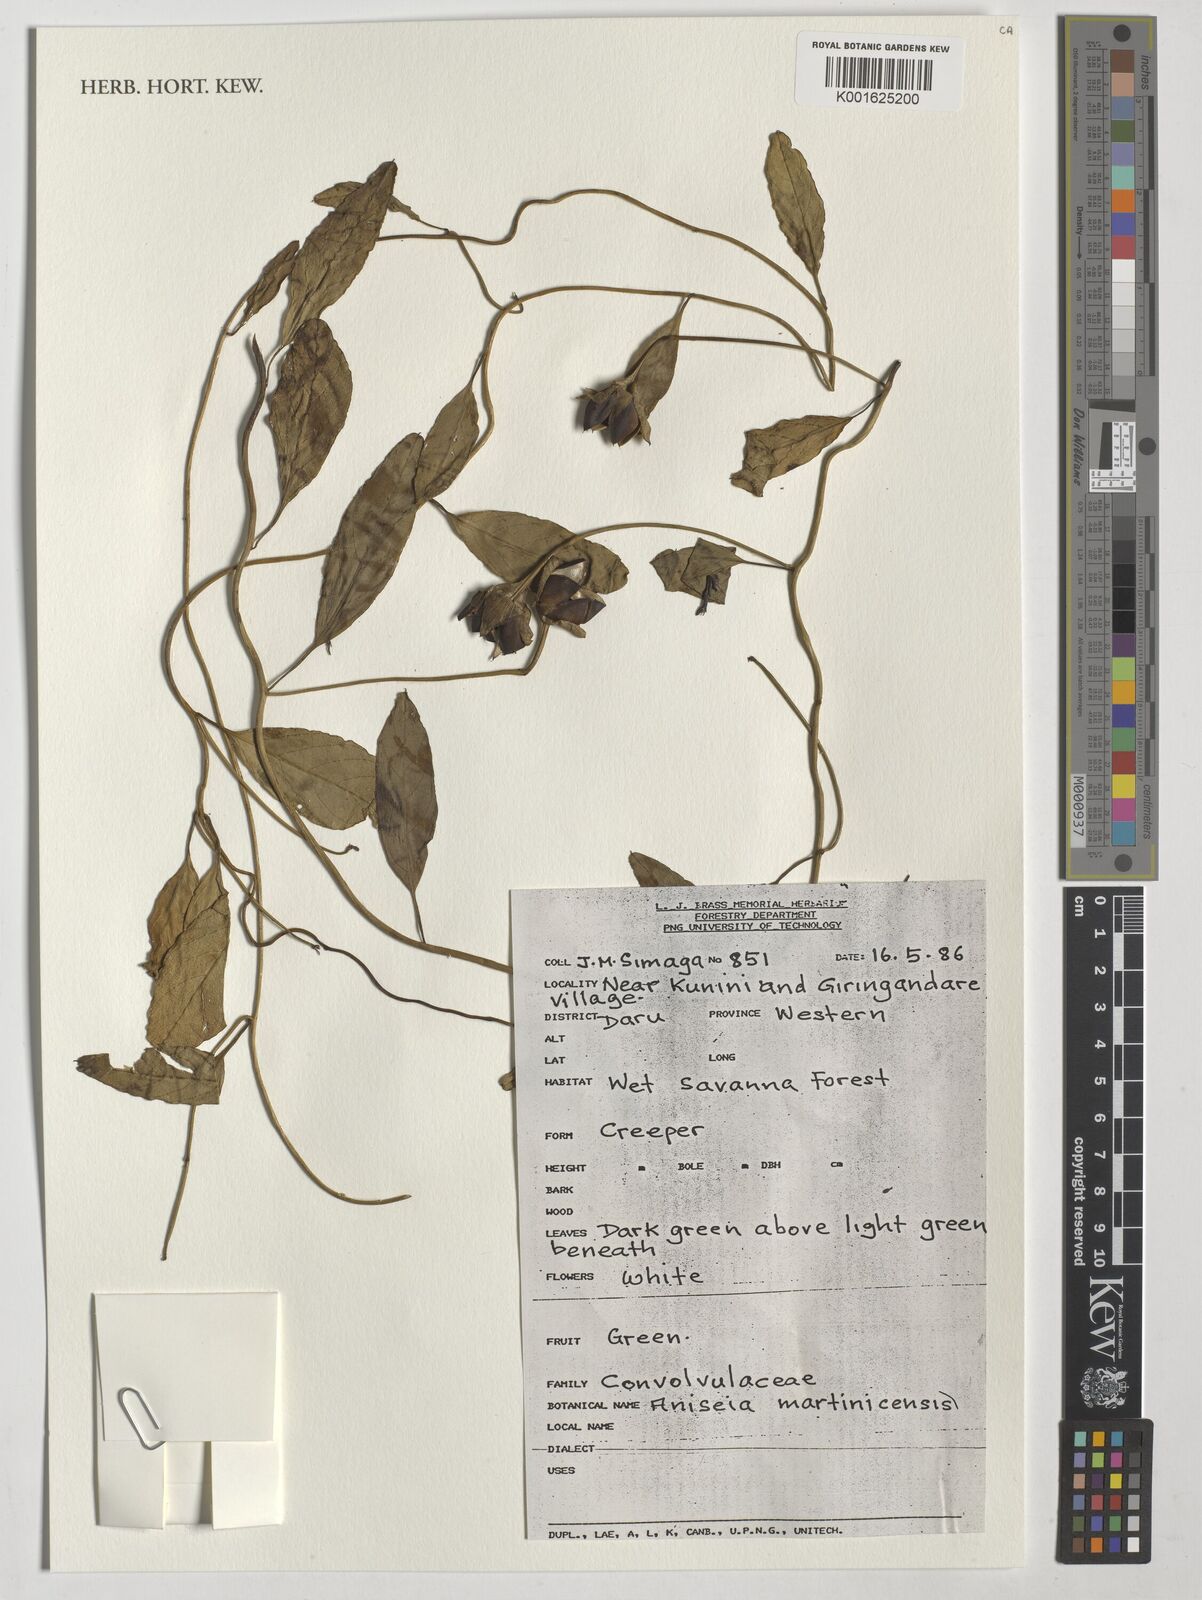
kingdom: Plantae
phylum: Tracheophyta
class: Magnoliopsida
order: Solanales
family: Convolvulaceae
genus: Aniseia
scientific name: Aniseia martinicensis
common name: Kulayadambu
